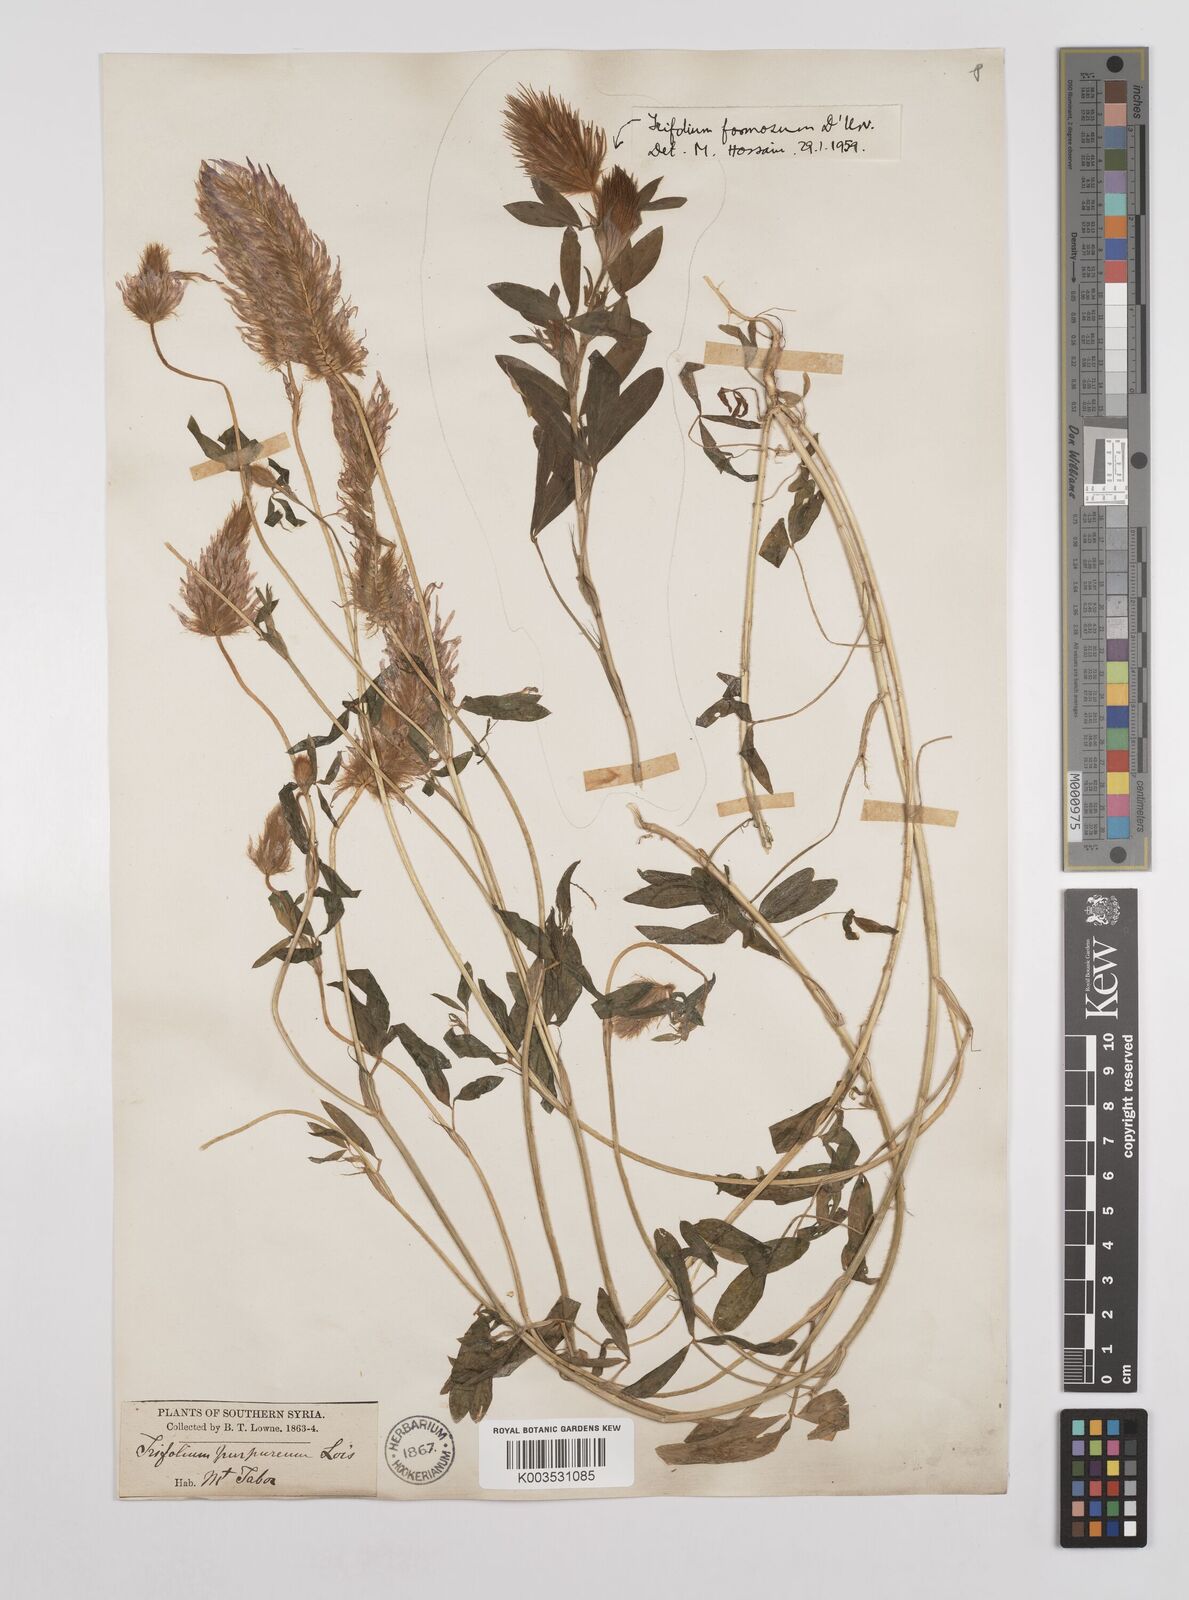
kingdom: Plantae
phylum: Tracheophyta
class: Magnoliopsida
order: Fabales
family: Fabaceae
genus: Trifolium
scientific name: Trifolium purpureum
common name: Purple clover
